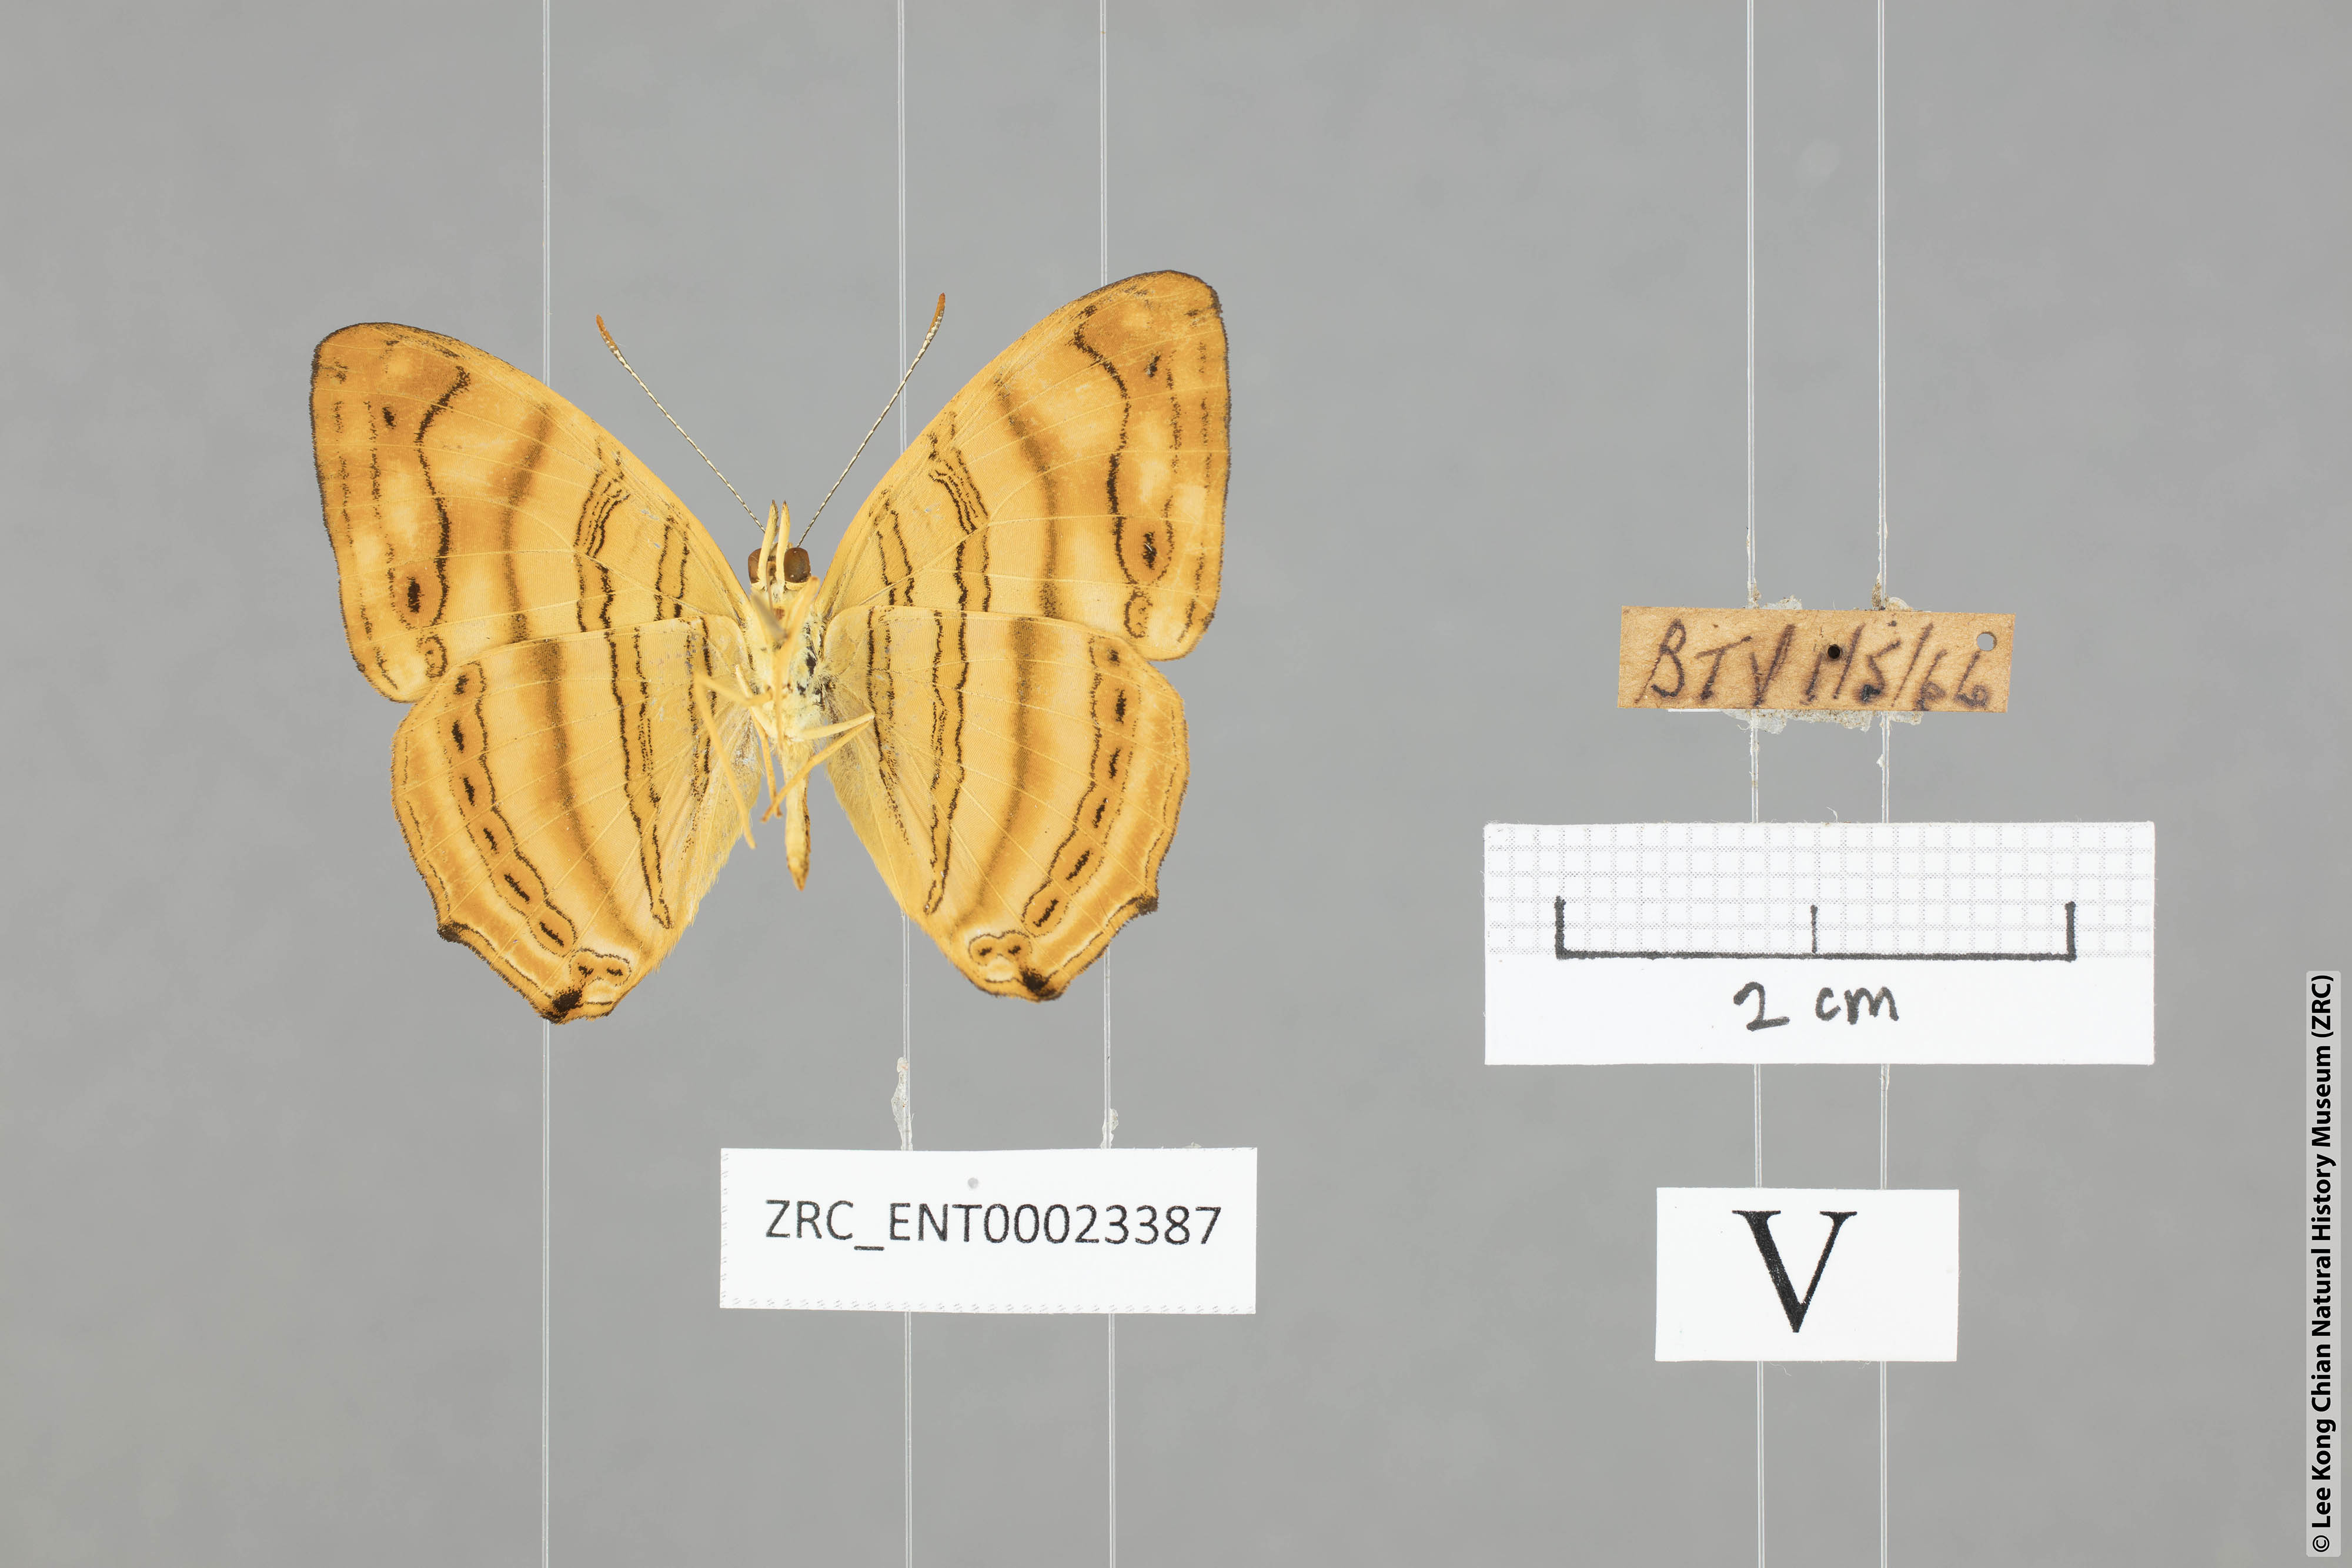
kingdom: Animalia
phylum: Arthropoda
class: Insecta
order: Lepidoptera
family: Nymphalidae
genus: Chersonesia
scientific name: Chersonesia rahria
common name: Wavy maplet
